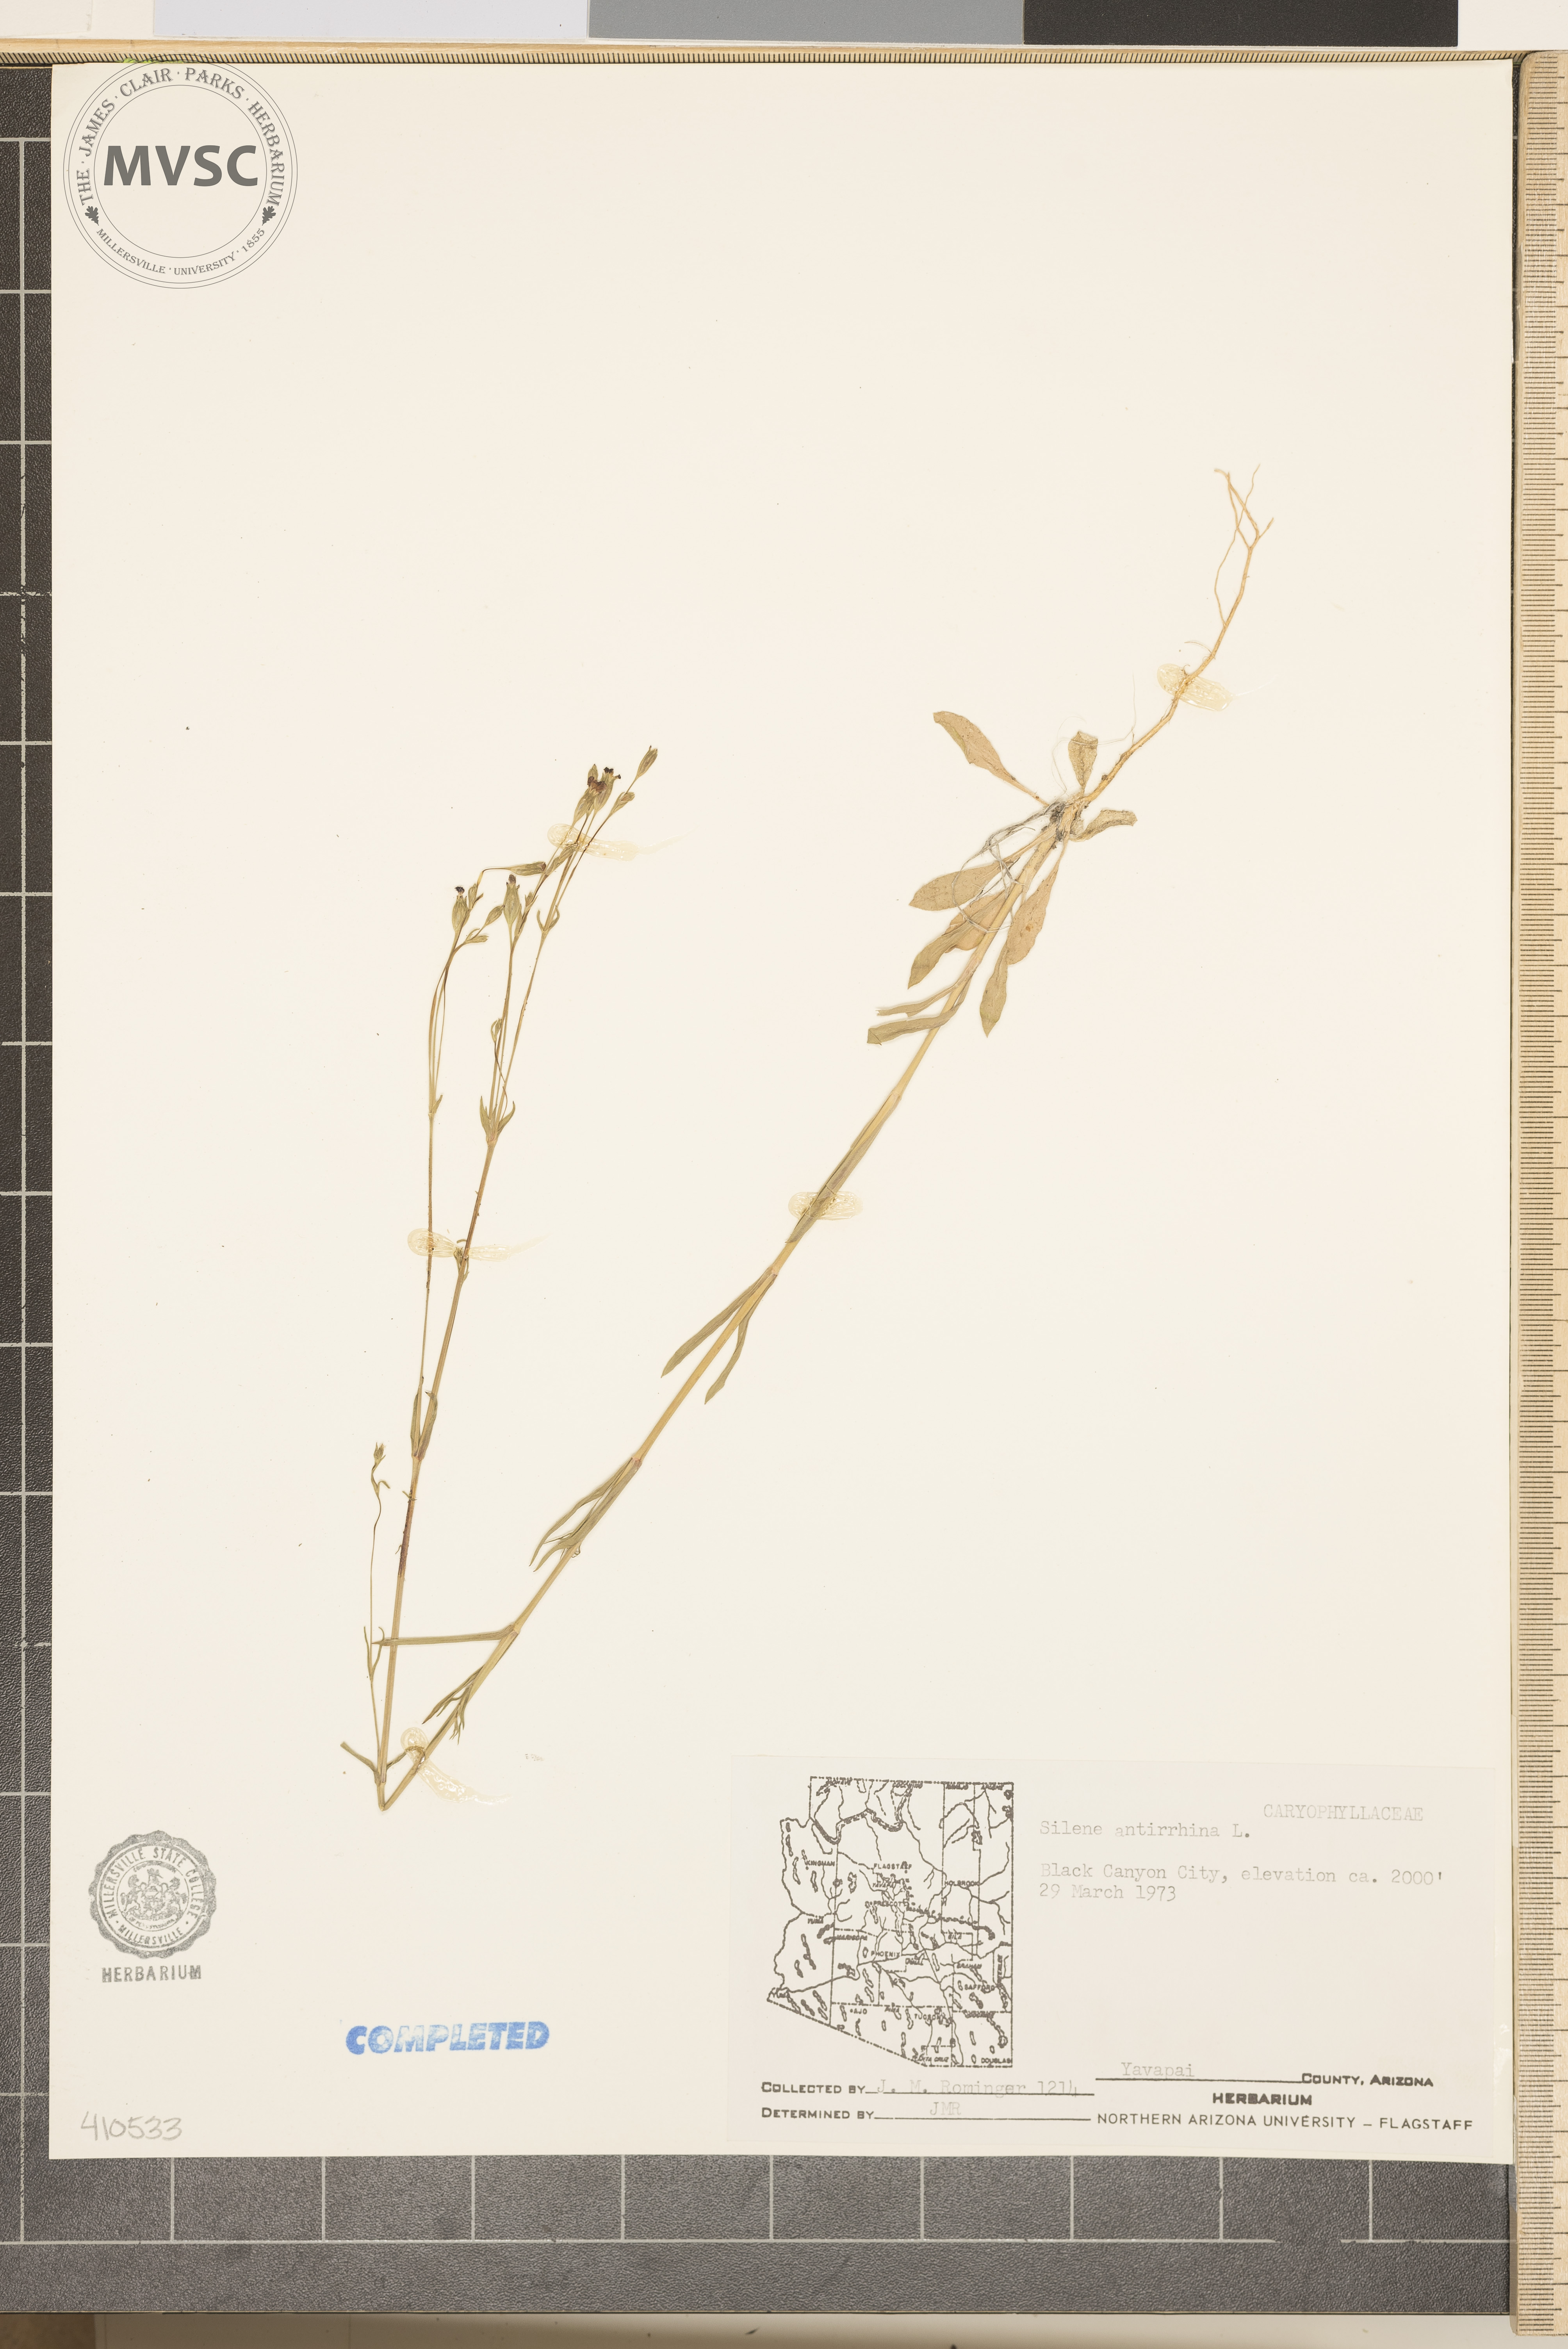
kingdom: Plantae
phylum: Tracheophyta
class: Magnoliopsida
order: Caryophyllales
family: Caryophyllaceae
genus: Silene
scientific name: Silene antirrhina
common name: Sleepy catchfly
